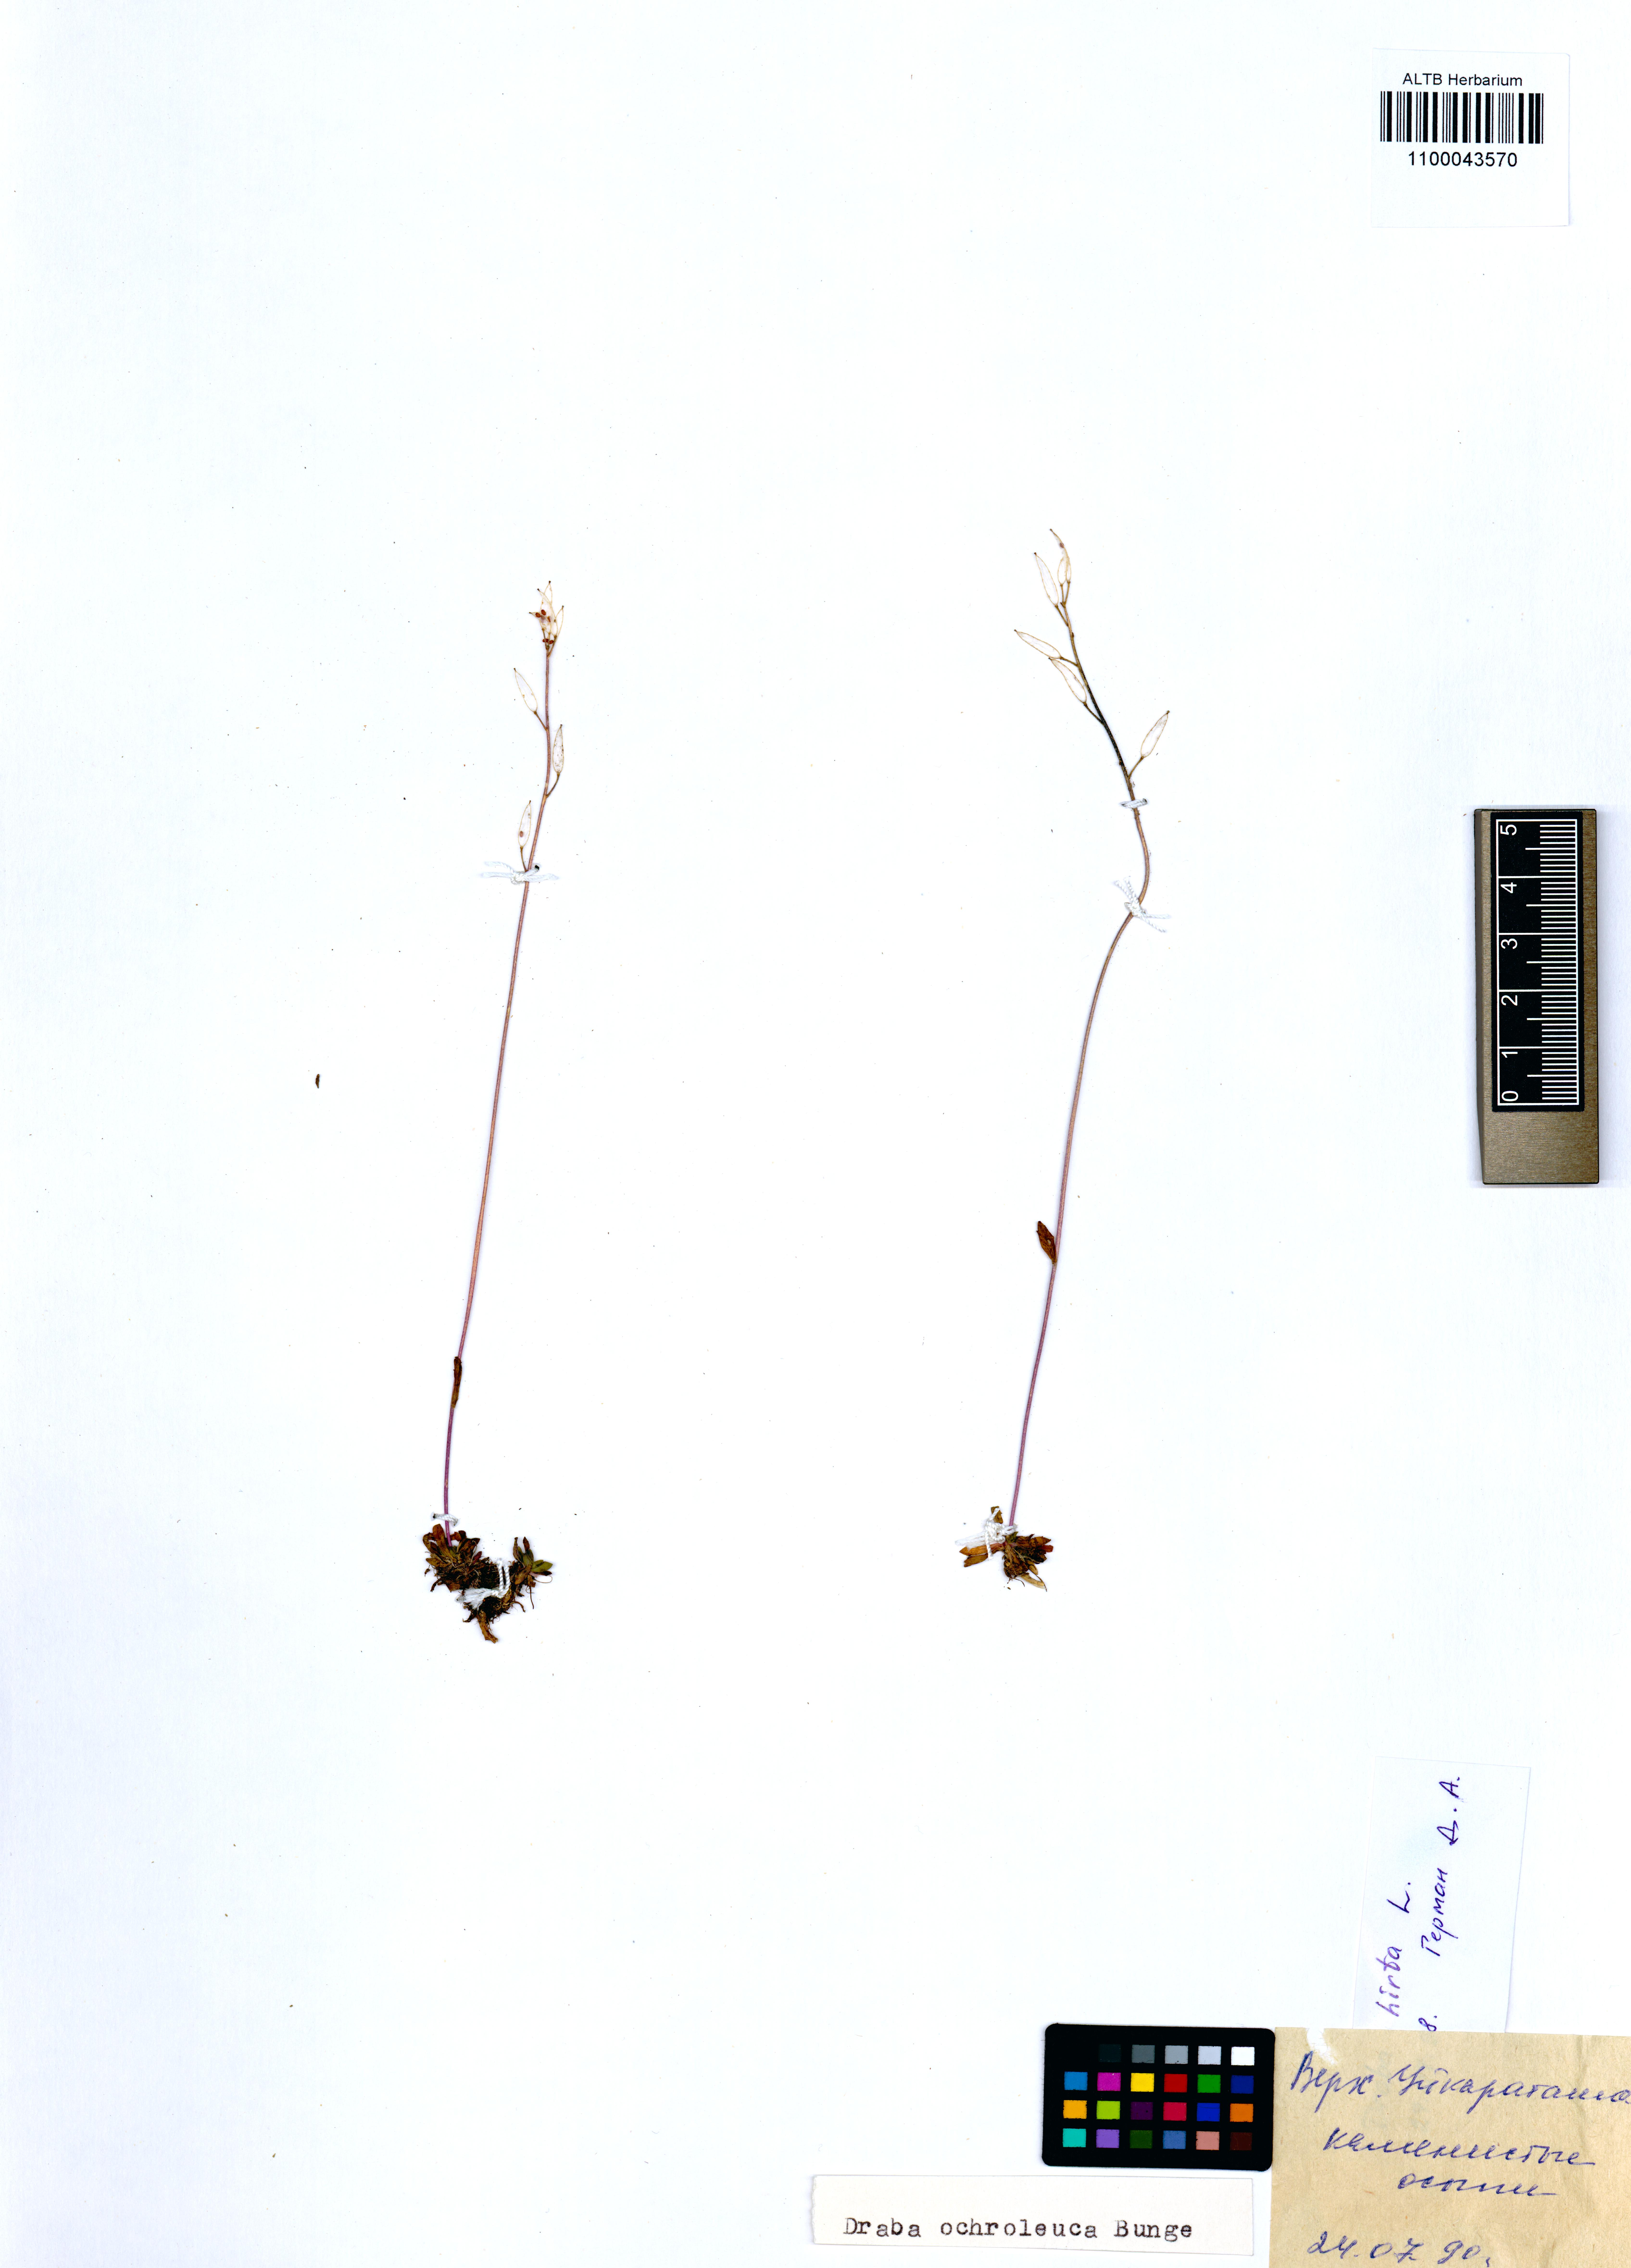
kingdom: Plantae
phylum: Tracheophyta
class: Magnoliopsida
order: Brassicales
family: Brassicaceae
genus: Draba
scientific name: Draba glabella
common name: Glaucous draba
